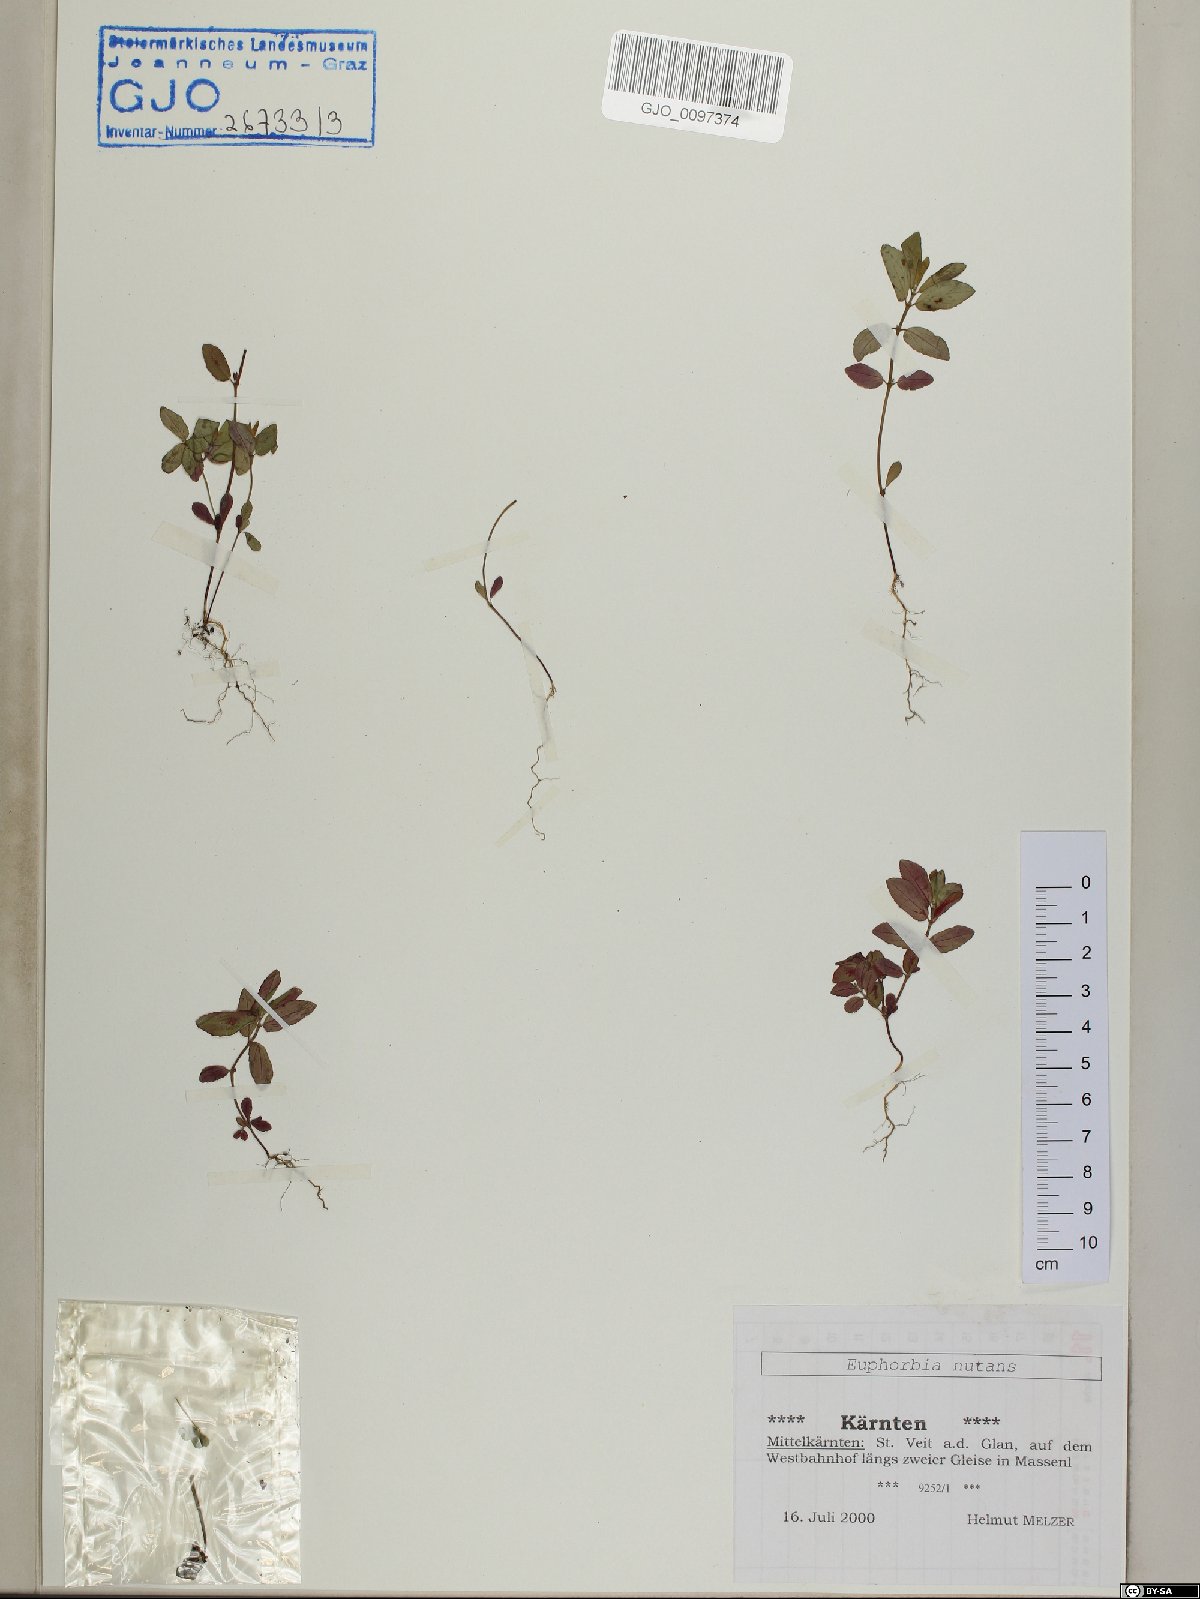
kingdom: Plantae
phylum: Tracheophyta
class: Magnoliopsida
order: Malpighiales
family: Euphorbiaceae
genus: Euphorbia
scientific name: Euphorbia nutans
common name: Eyebane
